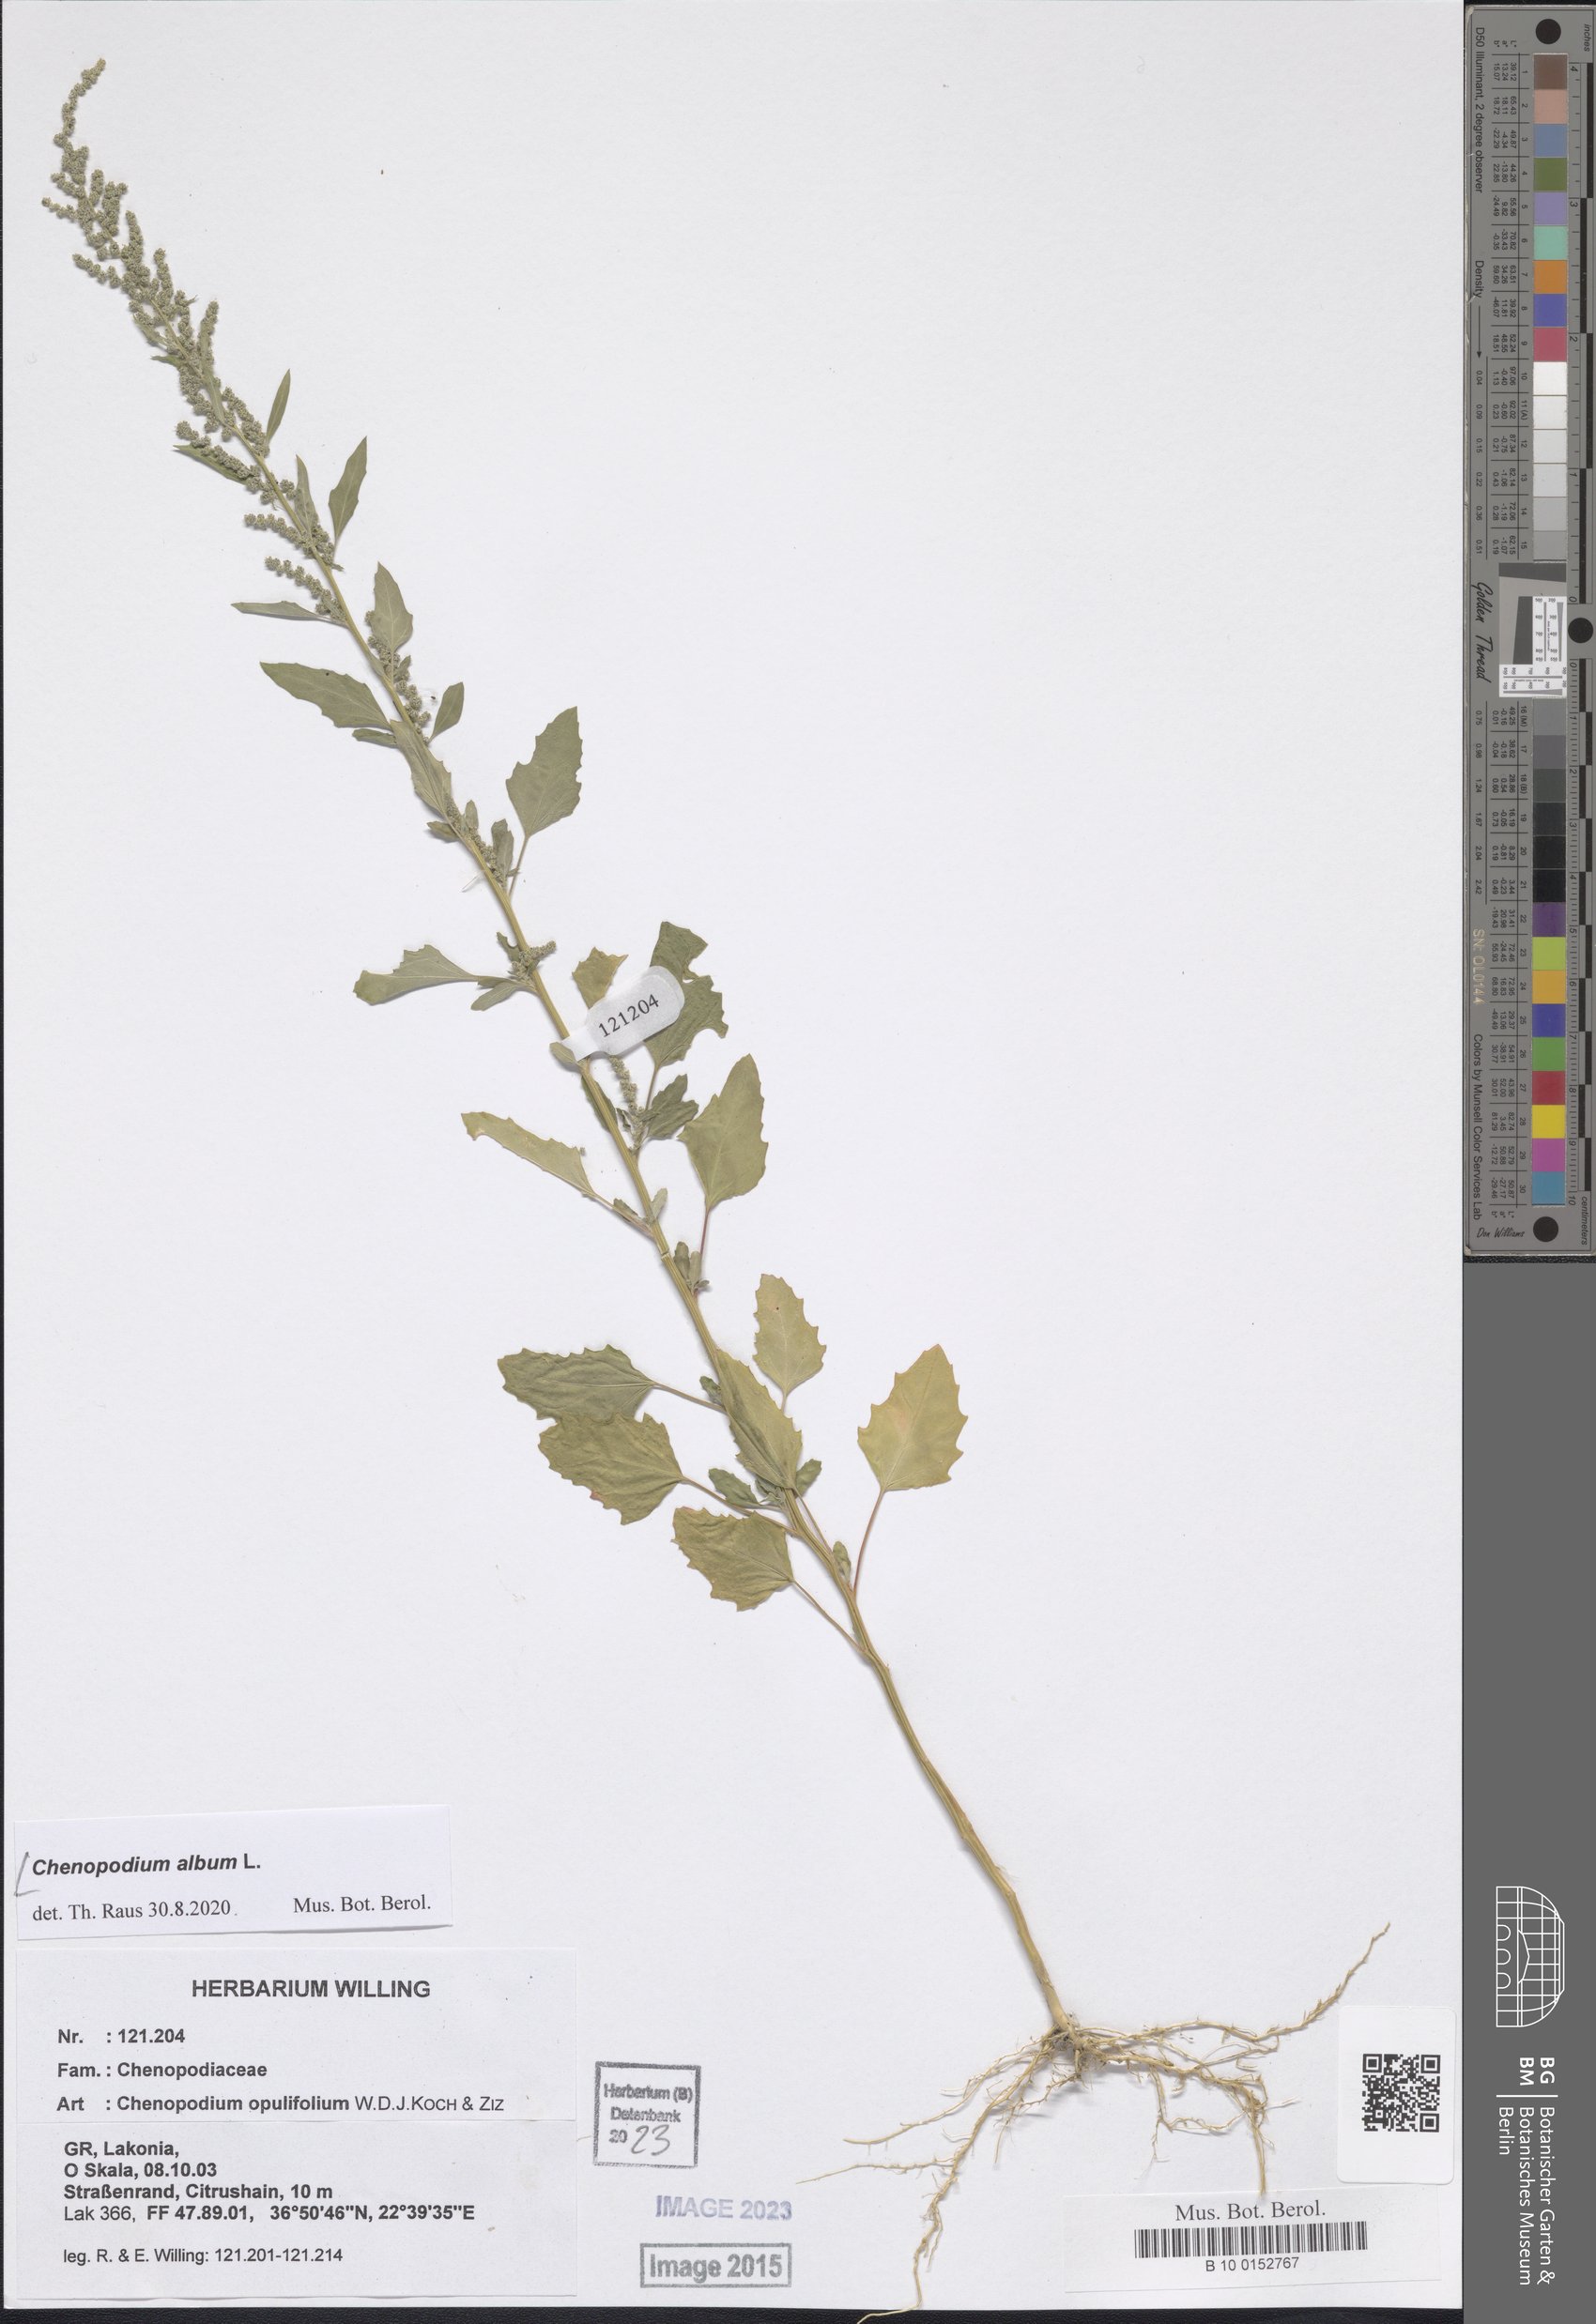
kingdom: Plantae
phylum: Tracheophyta
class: Magnoliopsida
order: Caryophyllales
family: Amaranthaceae
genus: Chenopodium
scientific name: Chenopodium album
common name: Fat-hen
